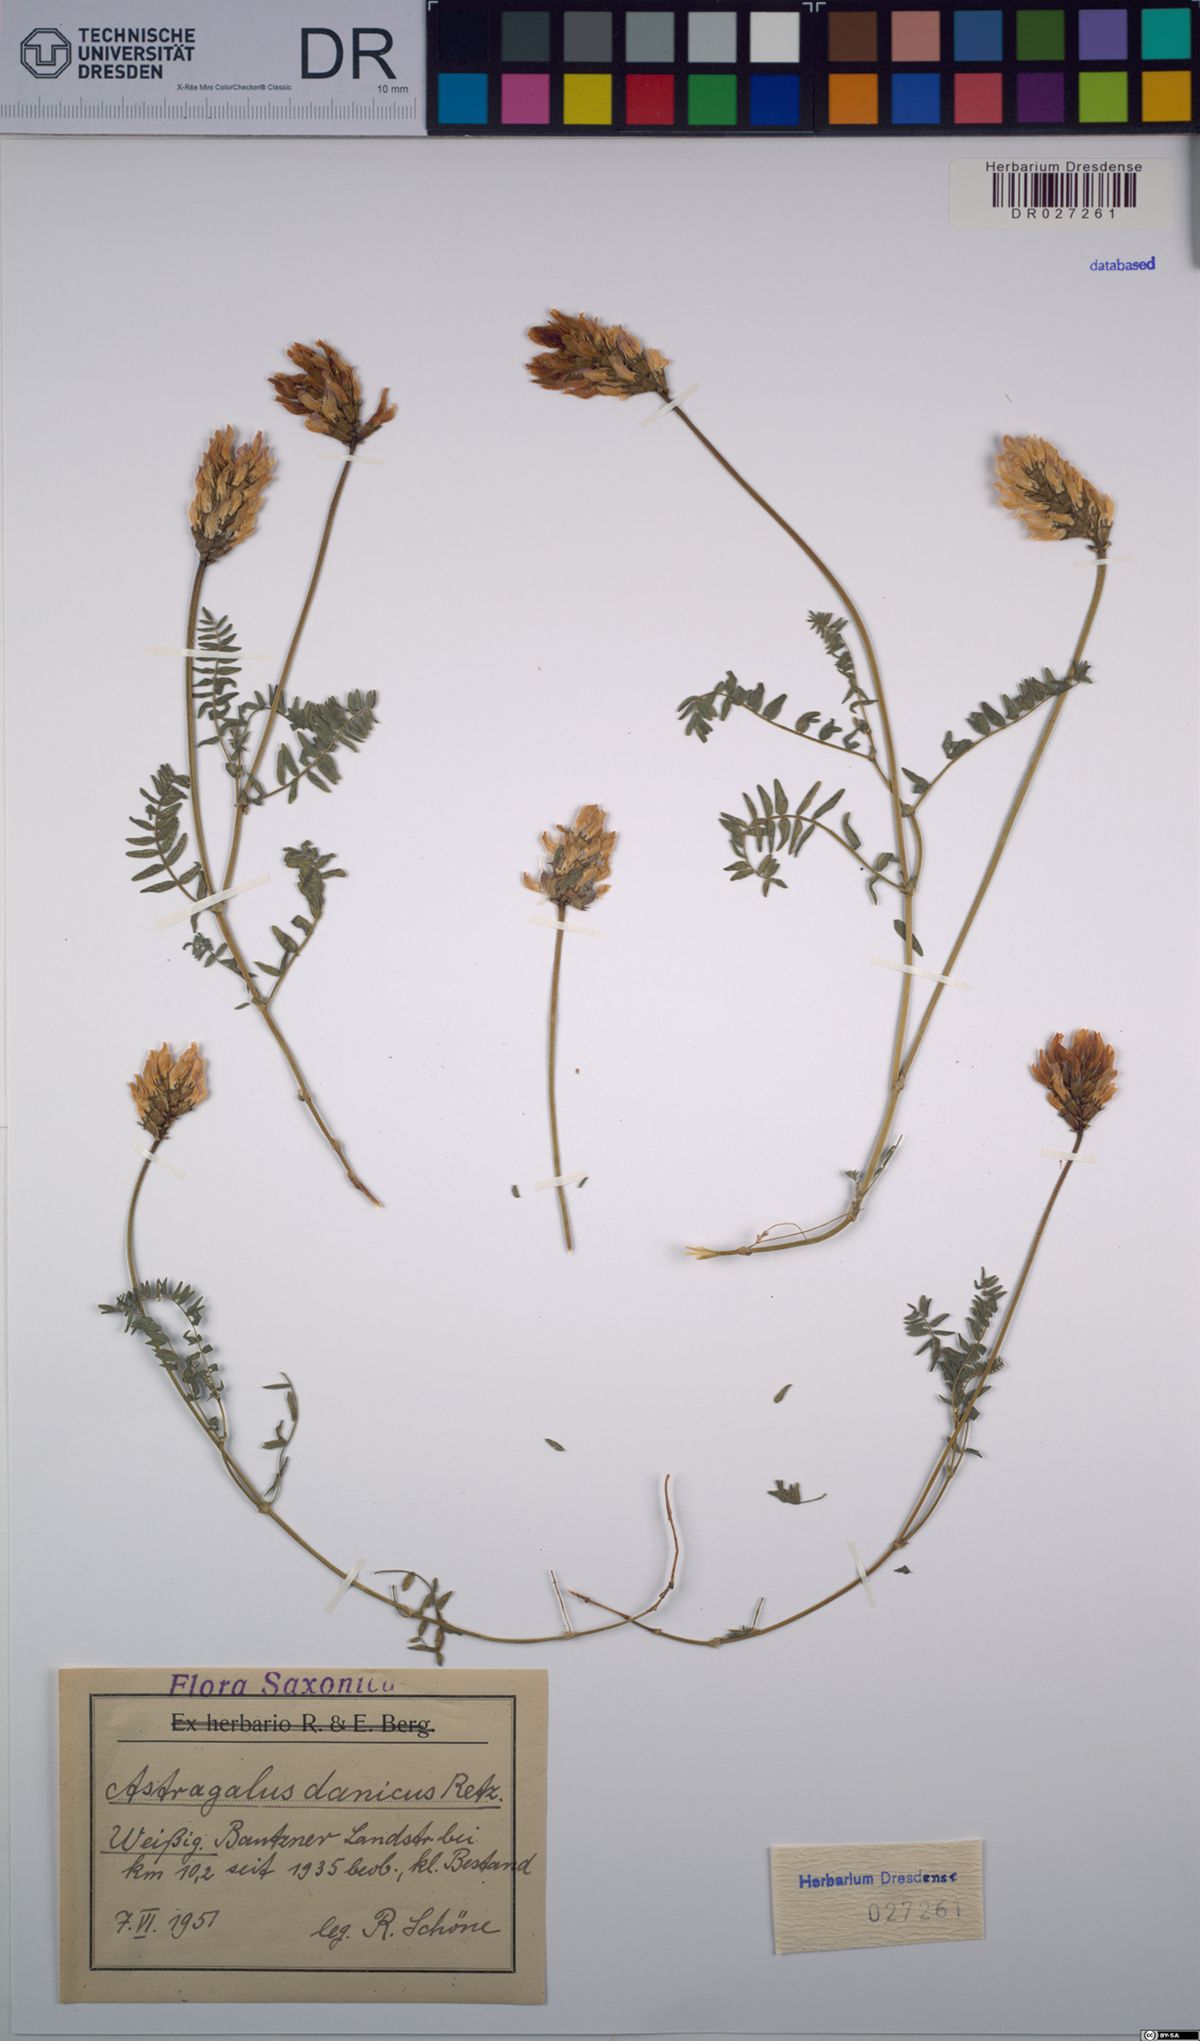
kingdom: Plantae
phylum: Tracheophyta
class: Magnoliopsida
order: Fabales
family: Fabaceae
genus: Astragalus
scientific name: Astragalus danicus
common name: Purple milk-vetch
